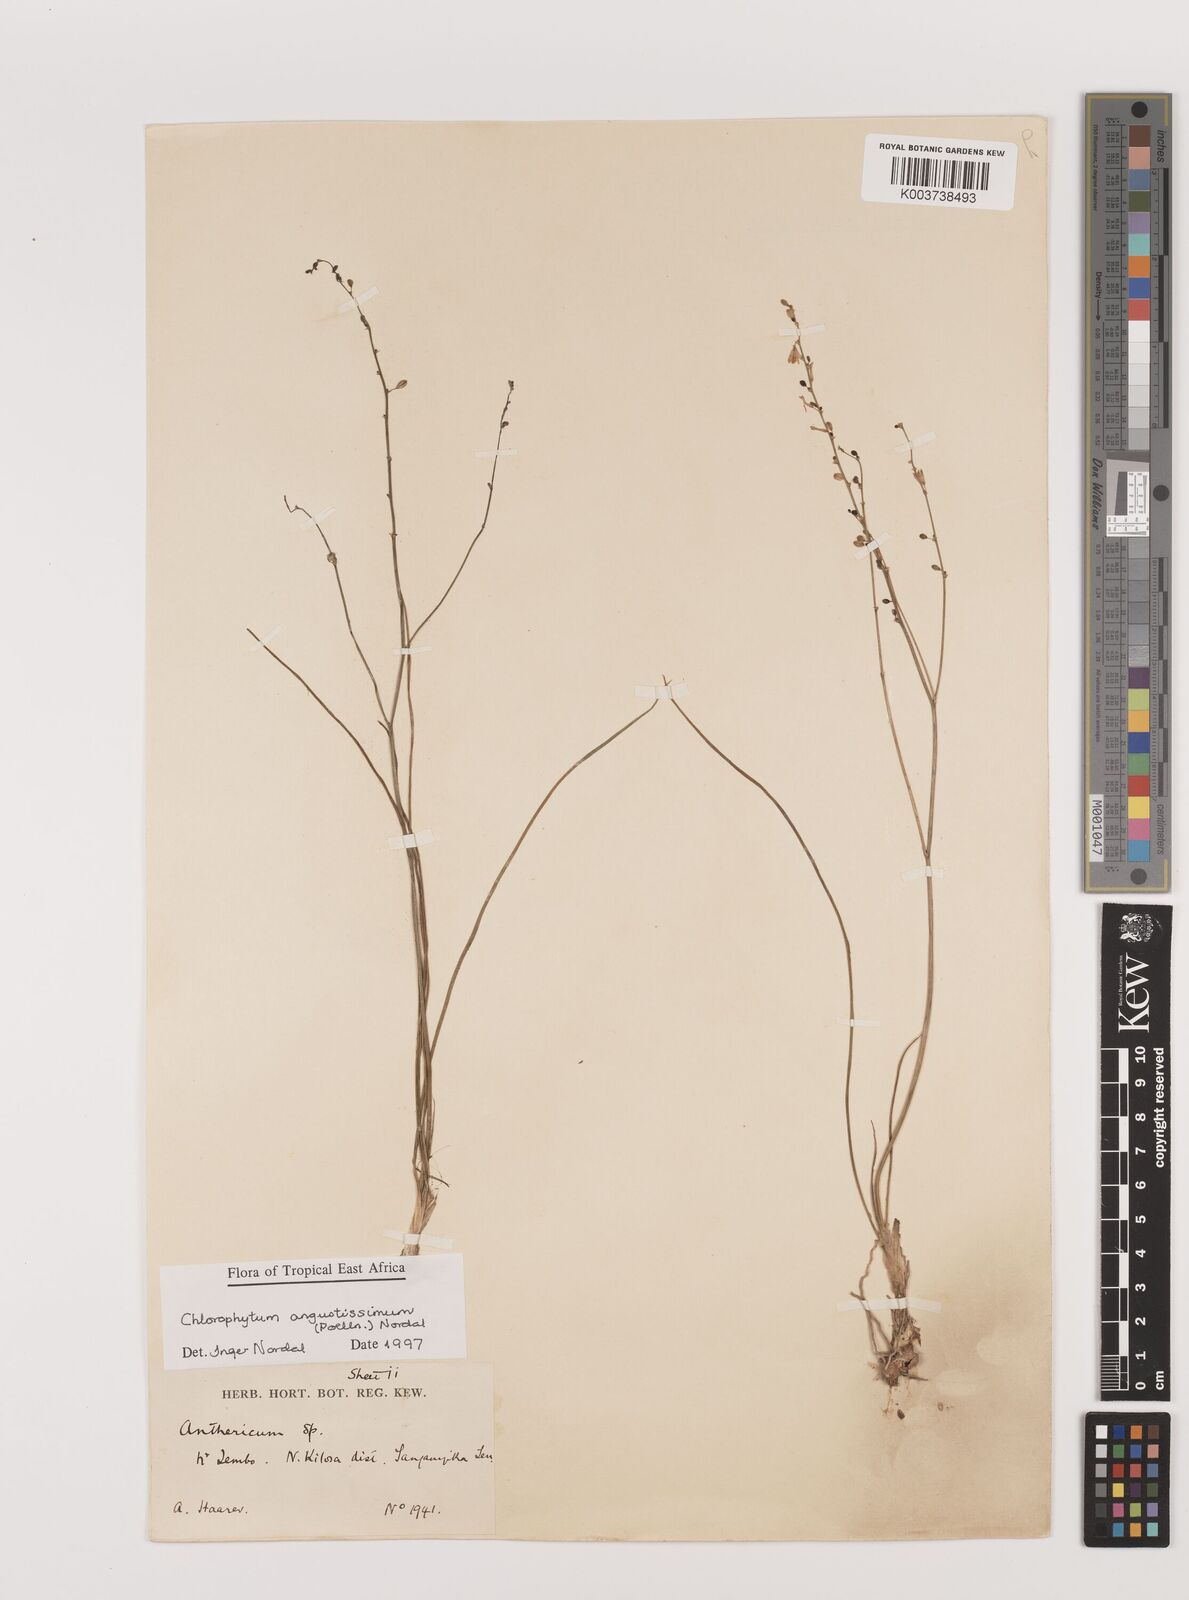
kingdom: Plantae
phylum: Tracheophyta
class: Liliopsida
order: Asparagales
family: Asparagaceae
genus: Chlorophytum
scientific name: Chlorophytum angustissimum
